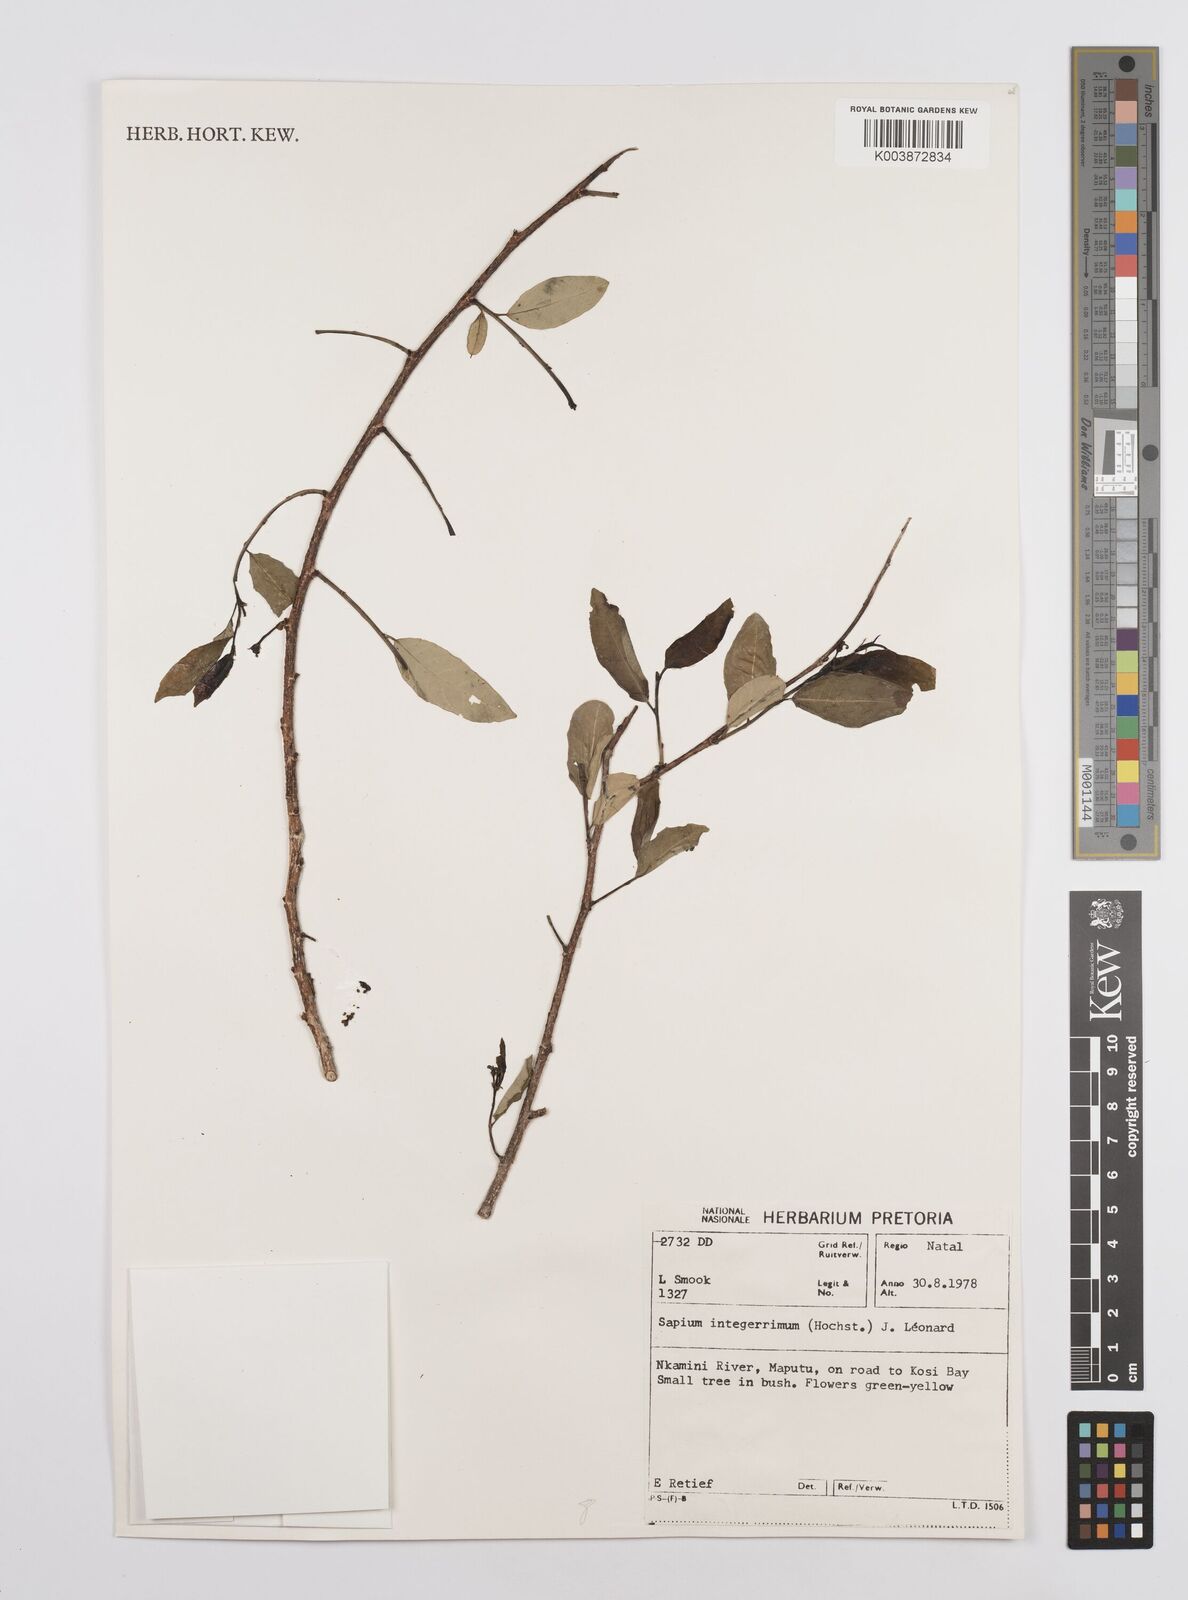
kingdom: Plantae
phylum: Tracheophyta
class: Magnoliopsida
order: Malpighiales
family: Euphorbiaceae
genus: Sclerocroton
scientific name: Sclerocroton integerrimus
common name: Duiker berry
